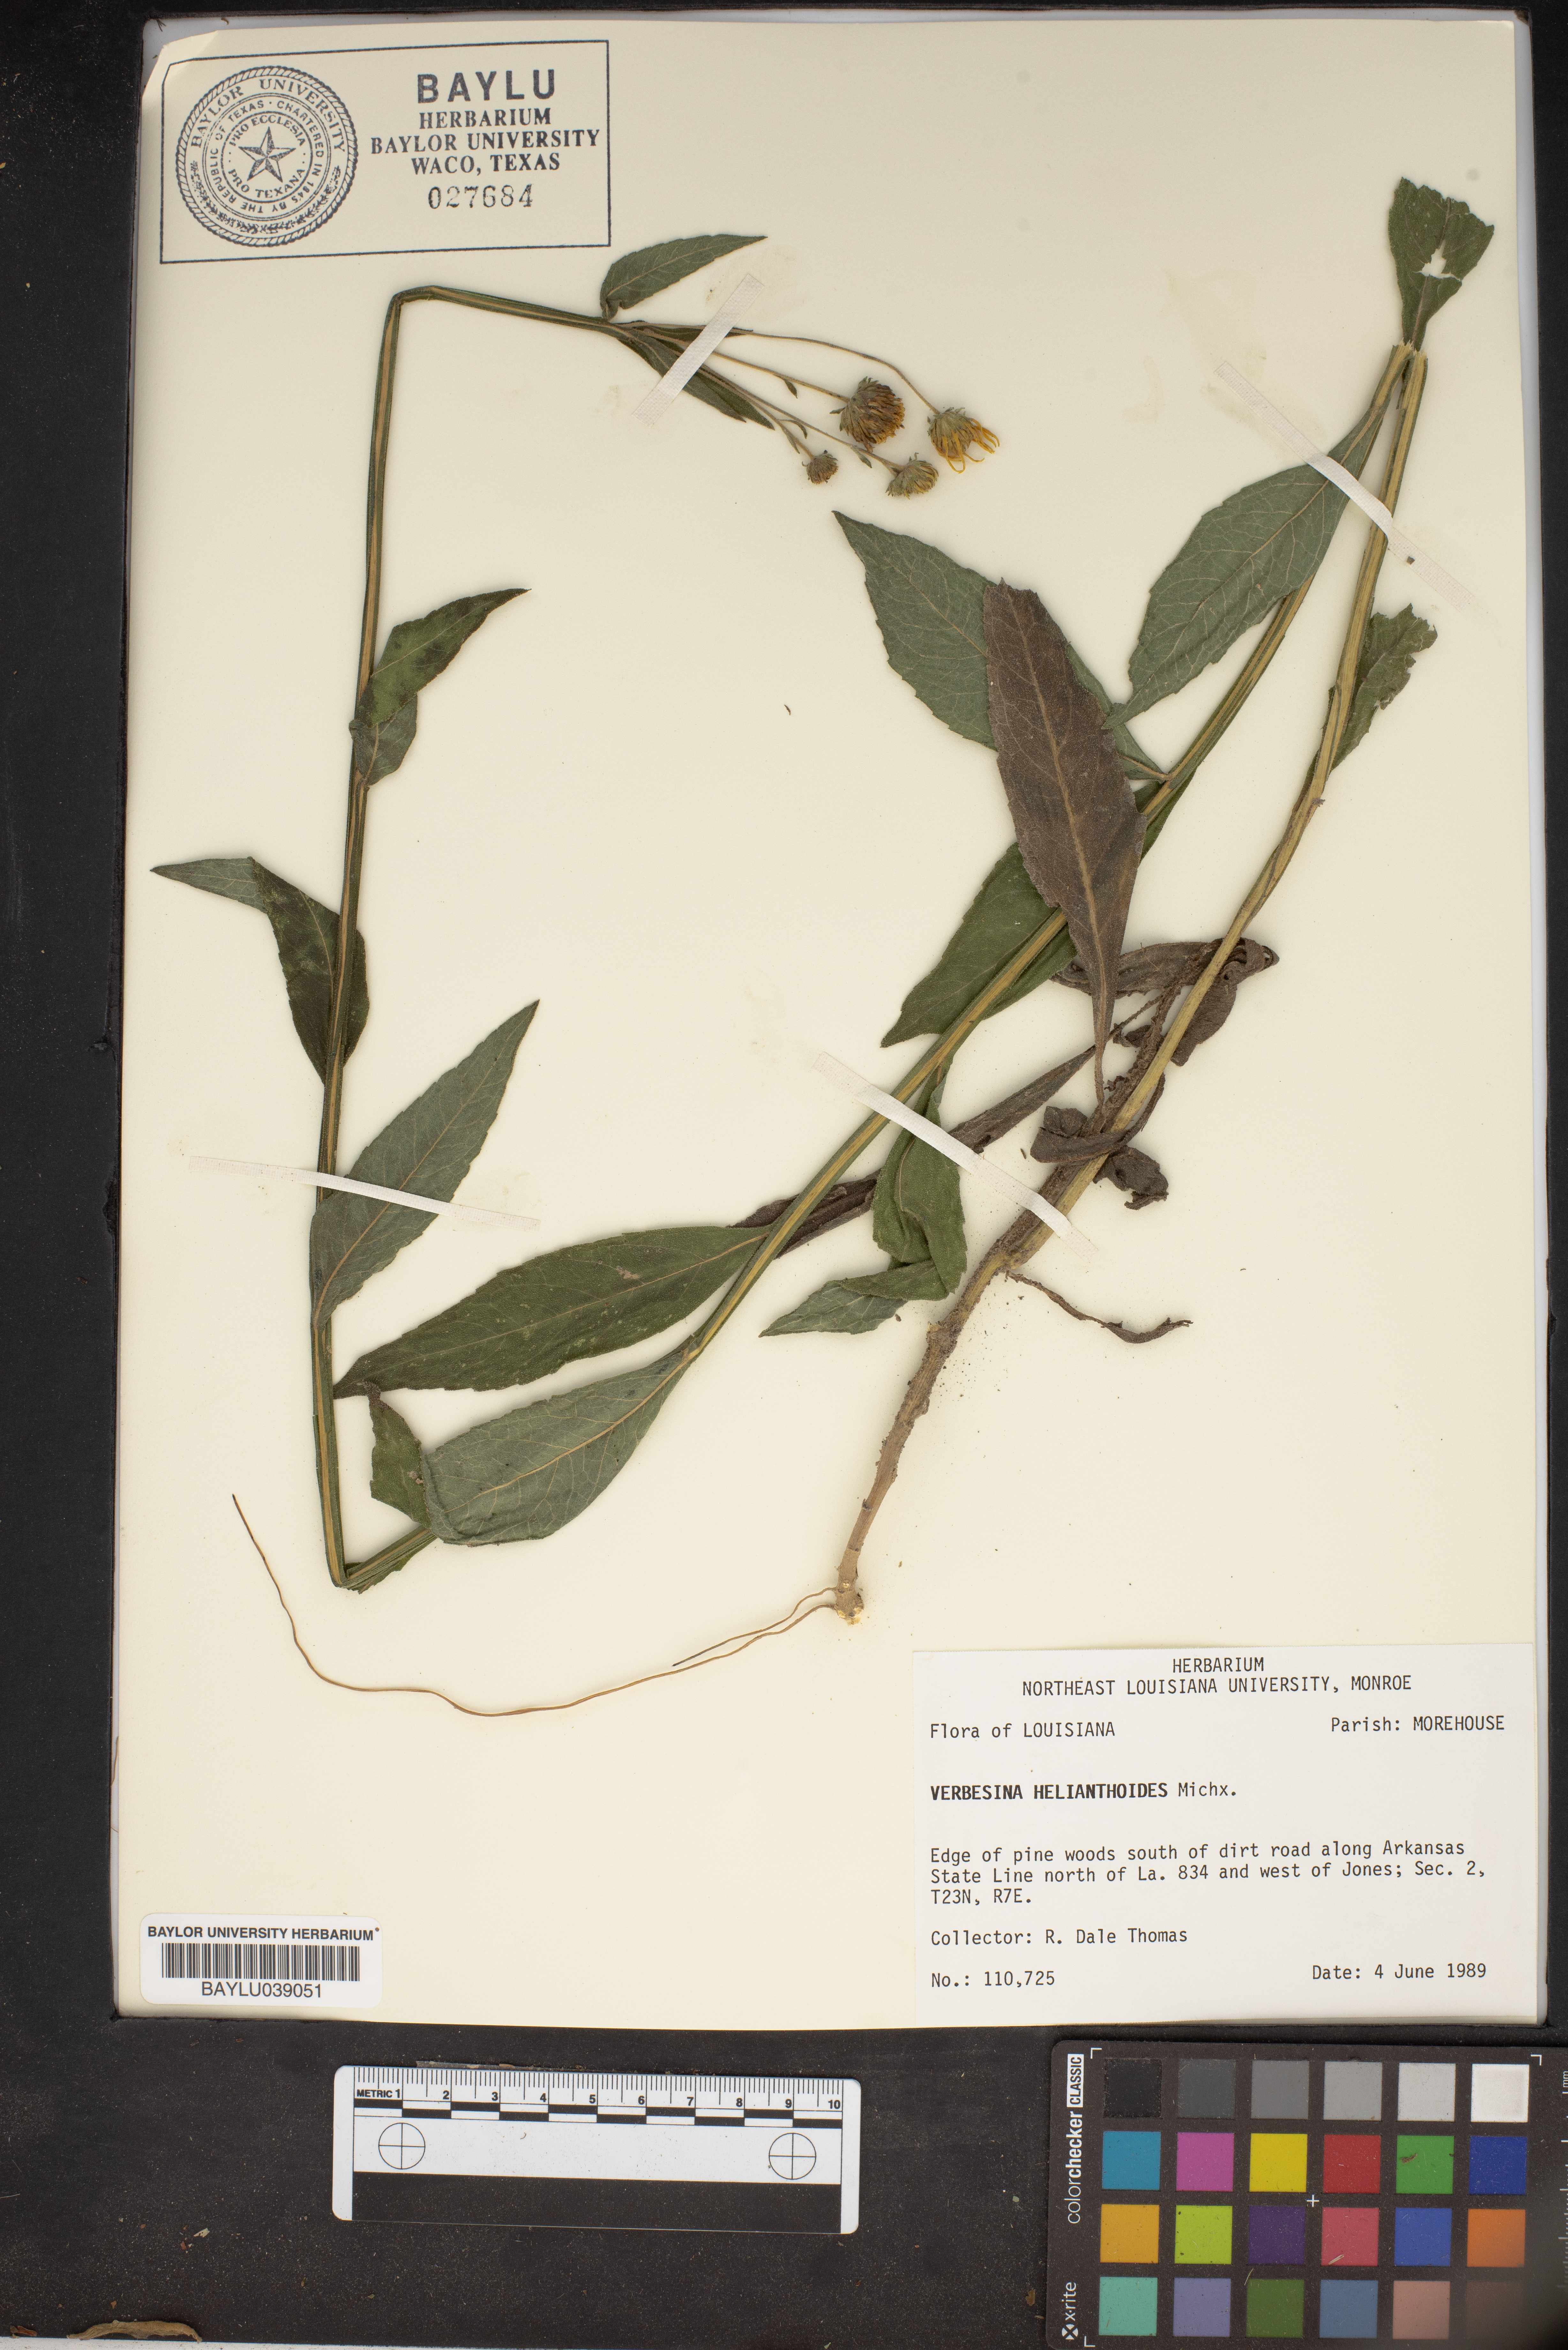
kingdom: Plantae
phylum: Tracheophyta
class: Magnoliopsida
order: Asterales
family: Asteraceae
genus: Verbesina
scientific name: Verbesina helianthoides
